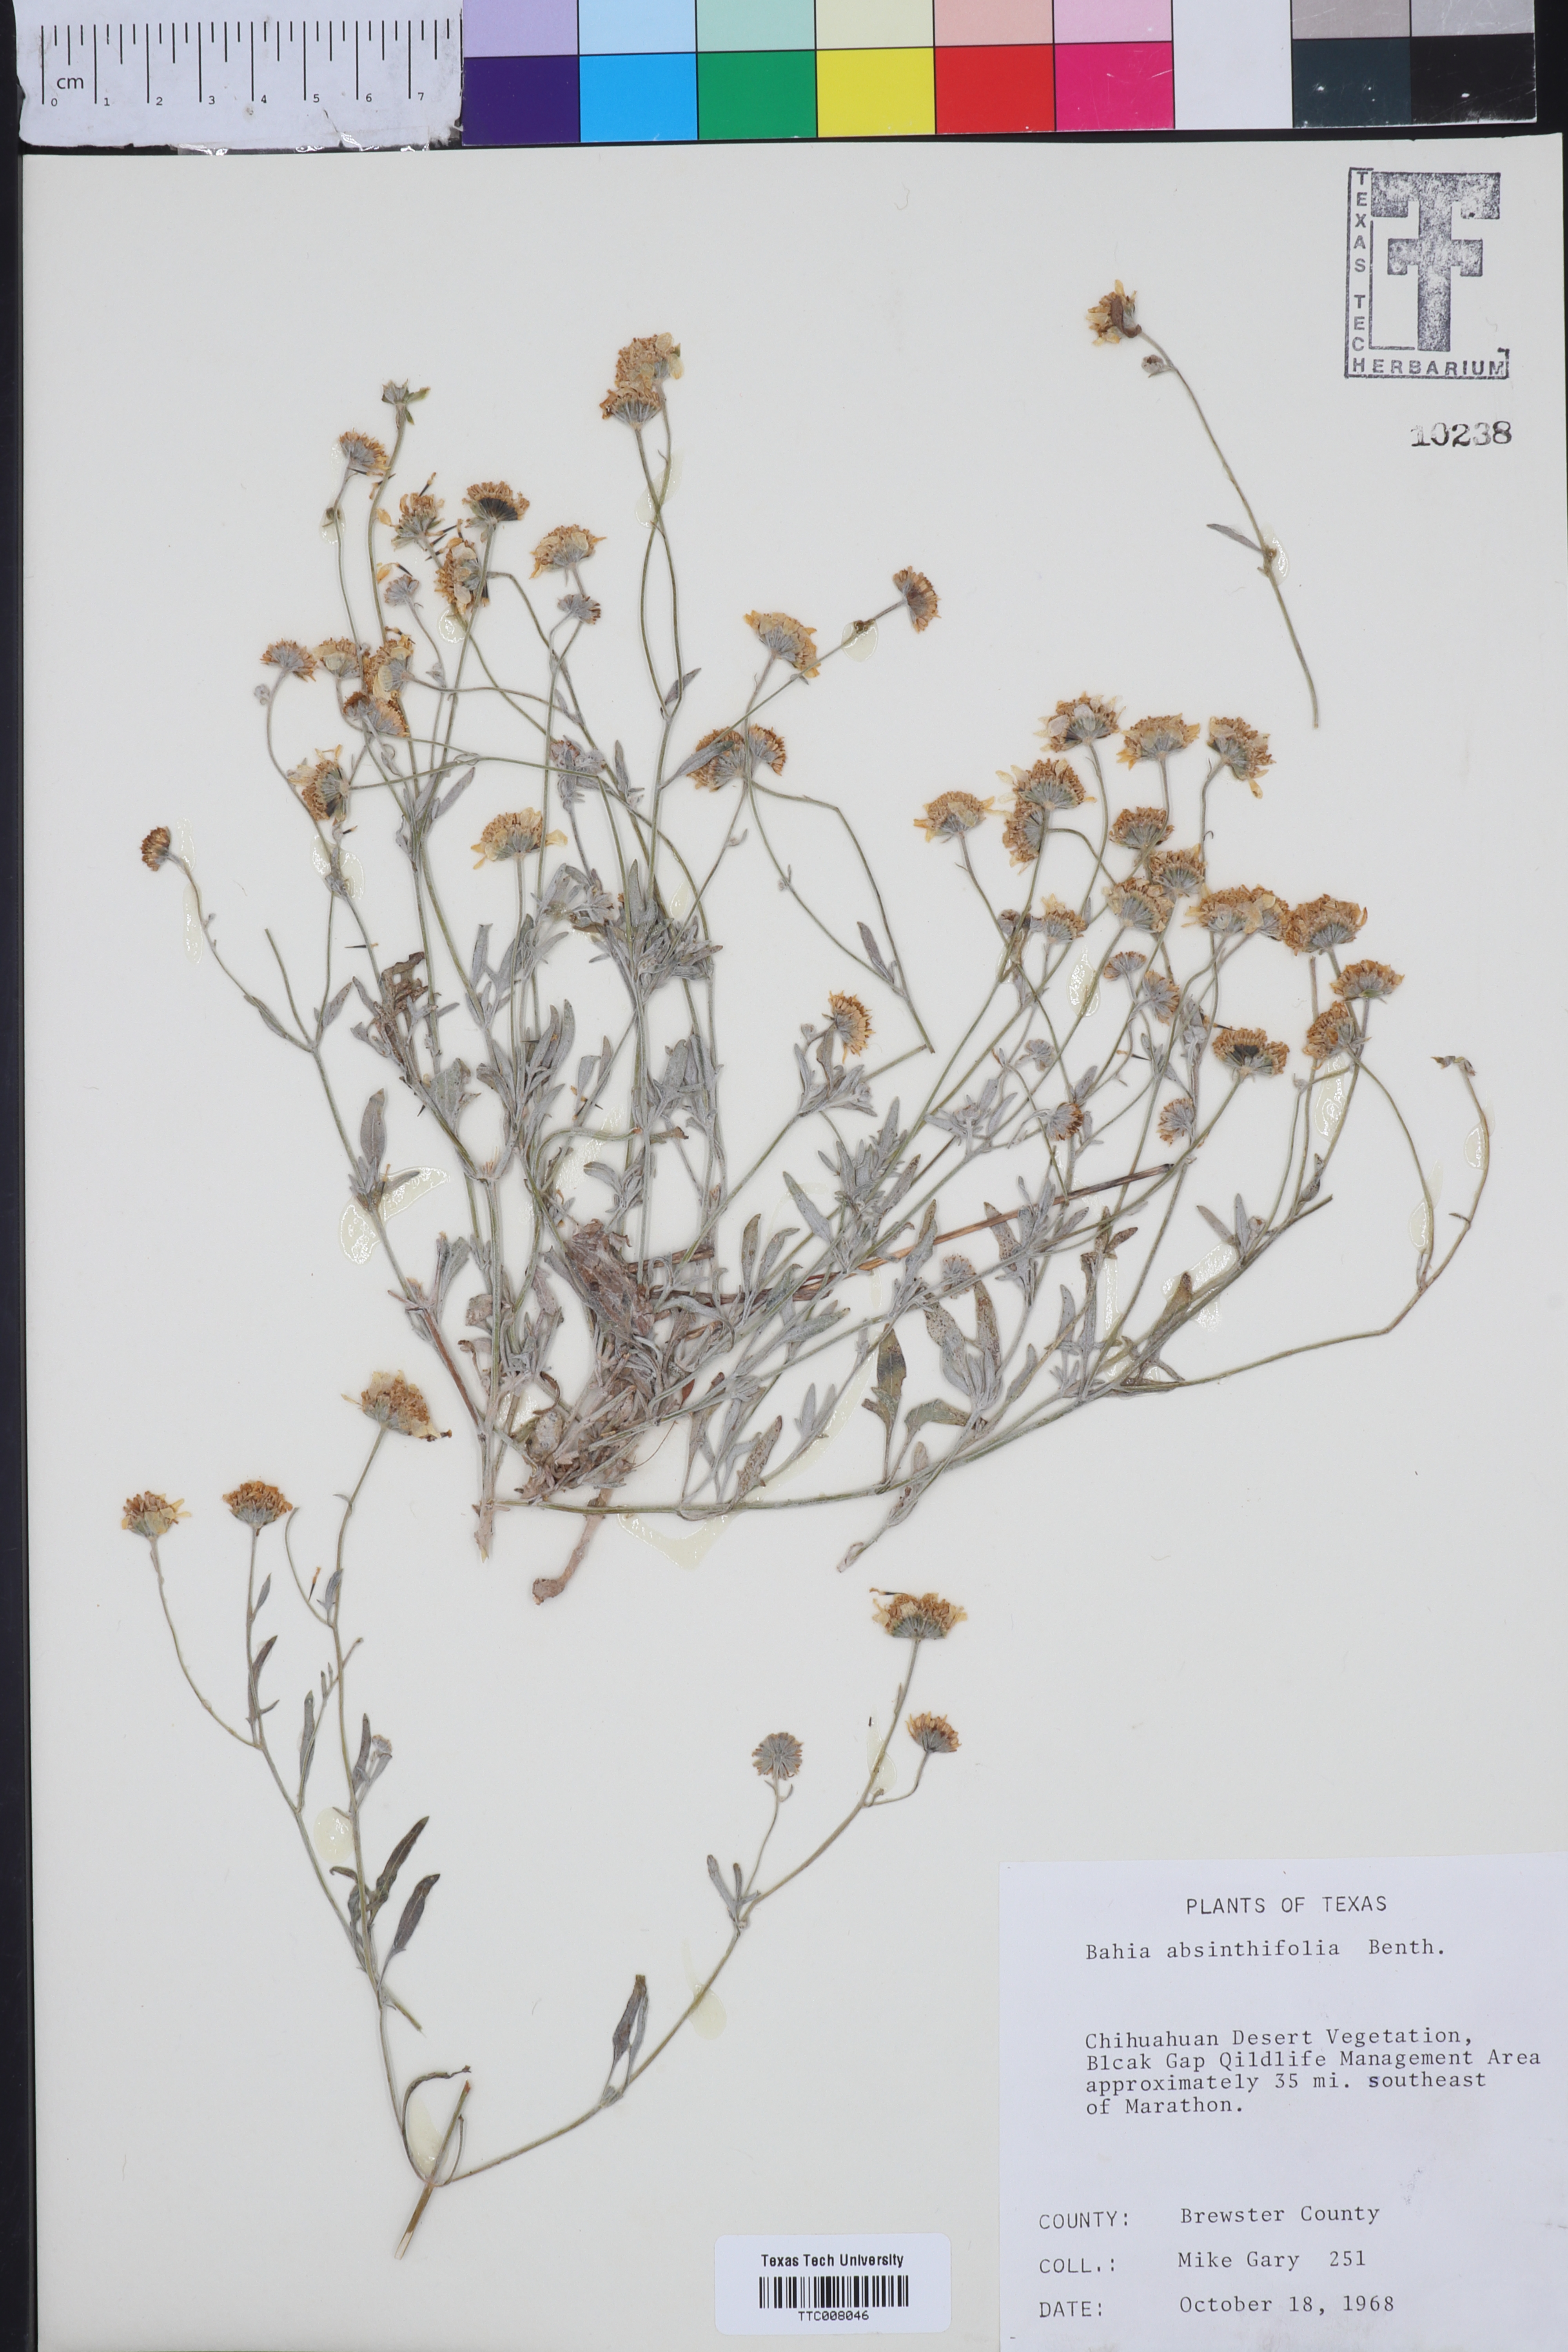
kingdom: Plantae
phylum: Tracheophyta
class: Magnoliopsida
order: Asterales
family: Asteraceae
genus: Picradeniopsis
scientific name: Picradeniopsis absinthifolia
